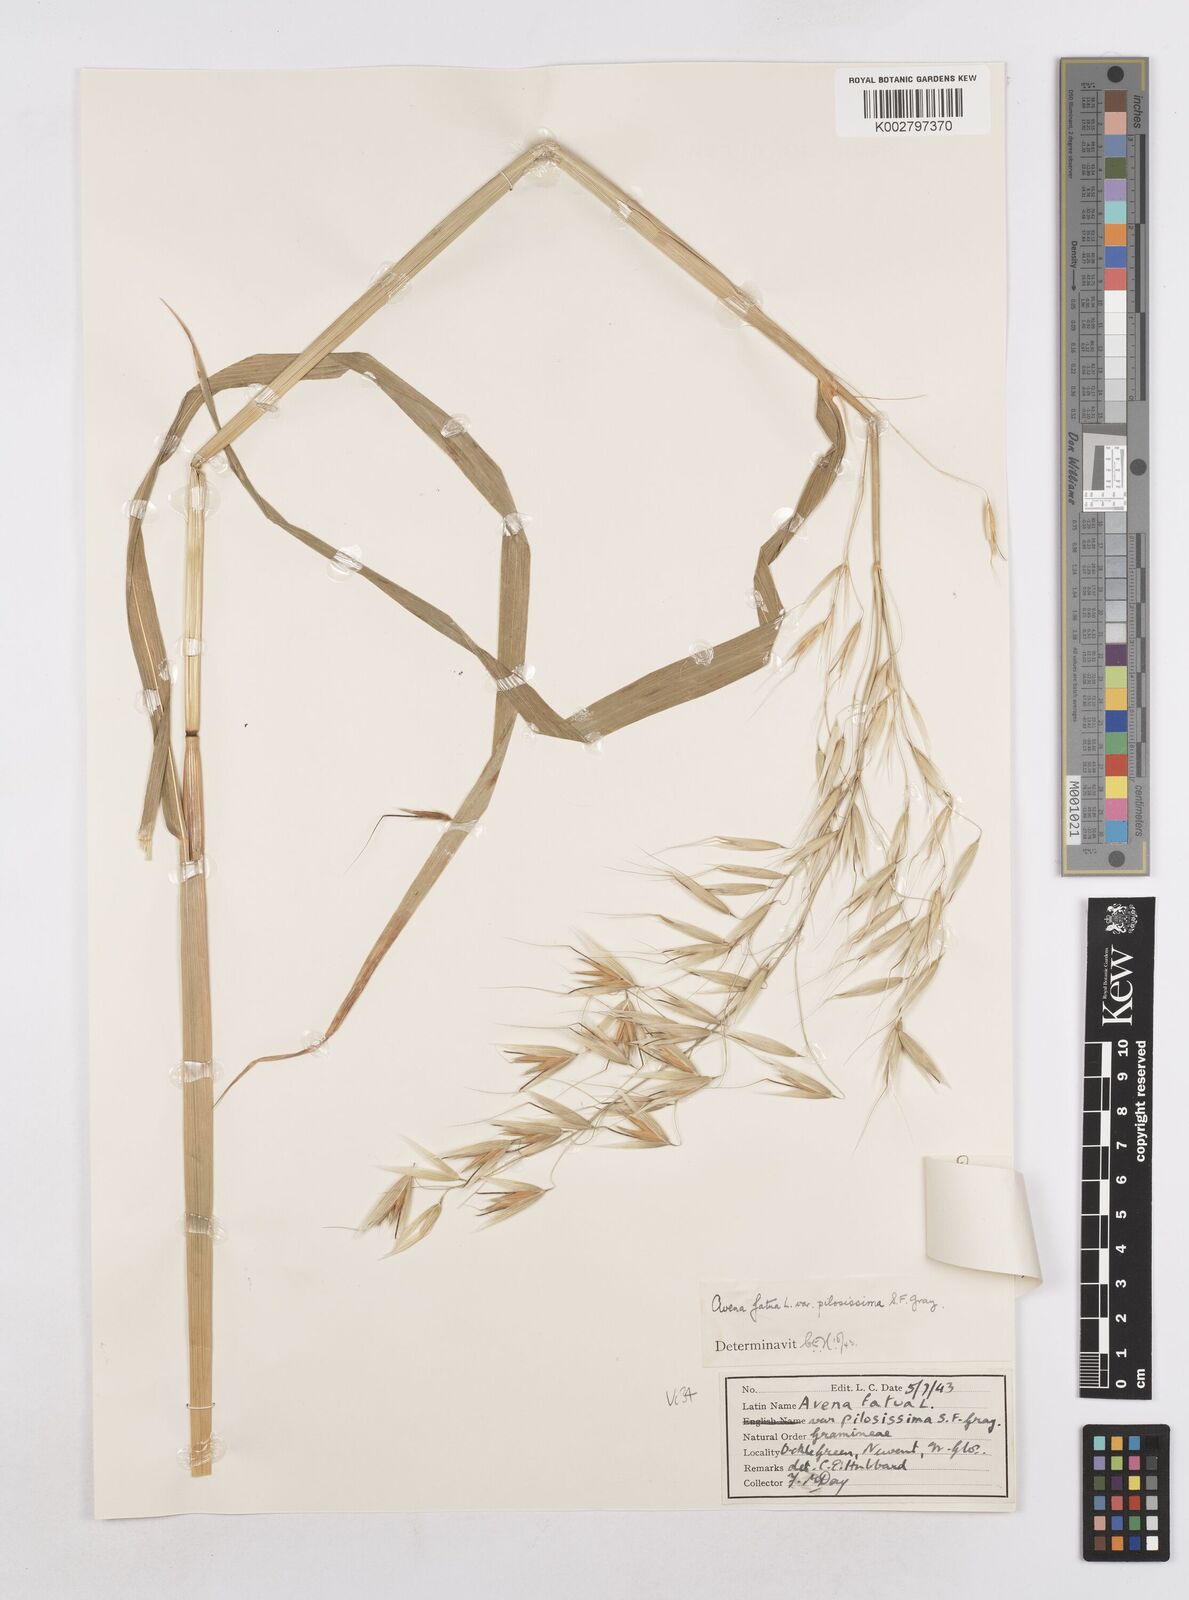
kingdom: Plantae
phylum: Tracheophyta
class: Liliopsida
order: Poales
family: Poaceae
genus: Avena
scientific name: Avena fatua
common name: Wild oat
